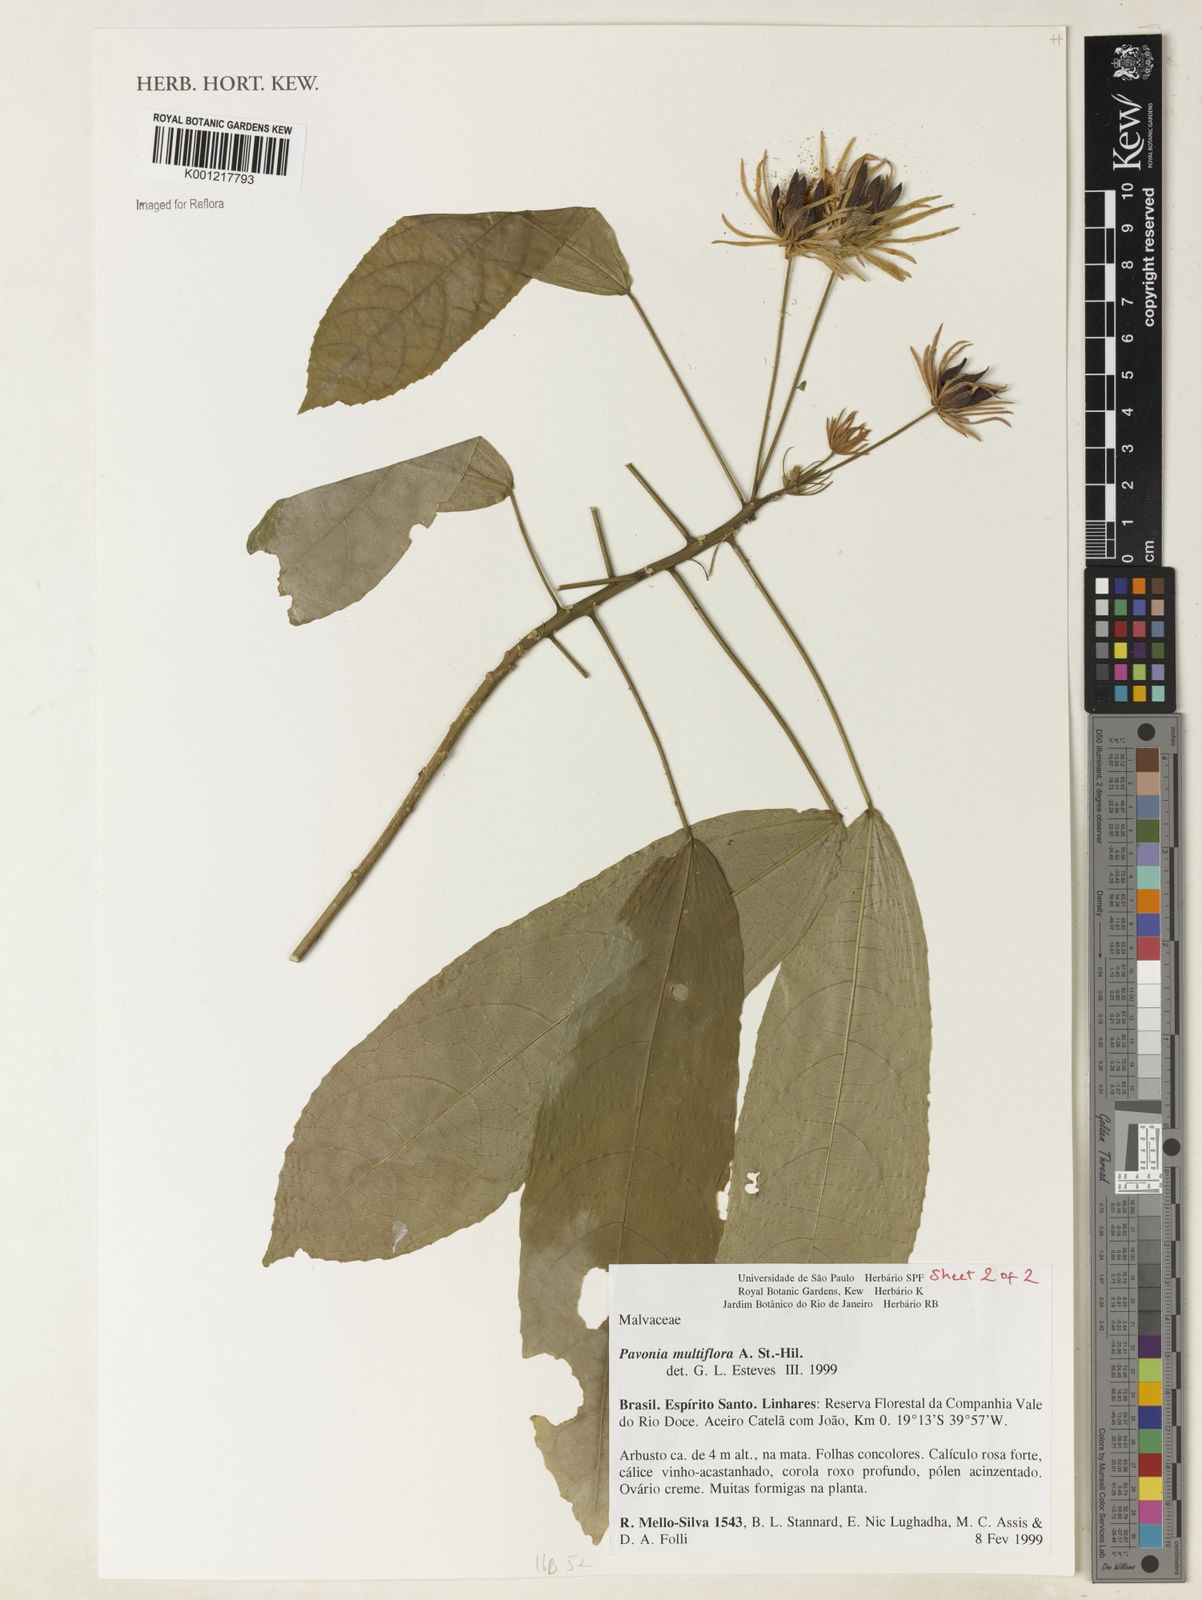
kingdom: Plantae
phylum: Tracheophyta
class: Magnoliopsida
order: Malvales
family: Malvaceae
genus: Pavonia
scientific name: Pavonia multiflora
